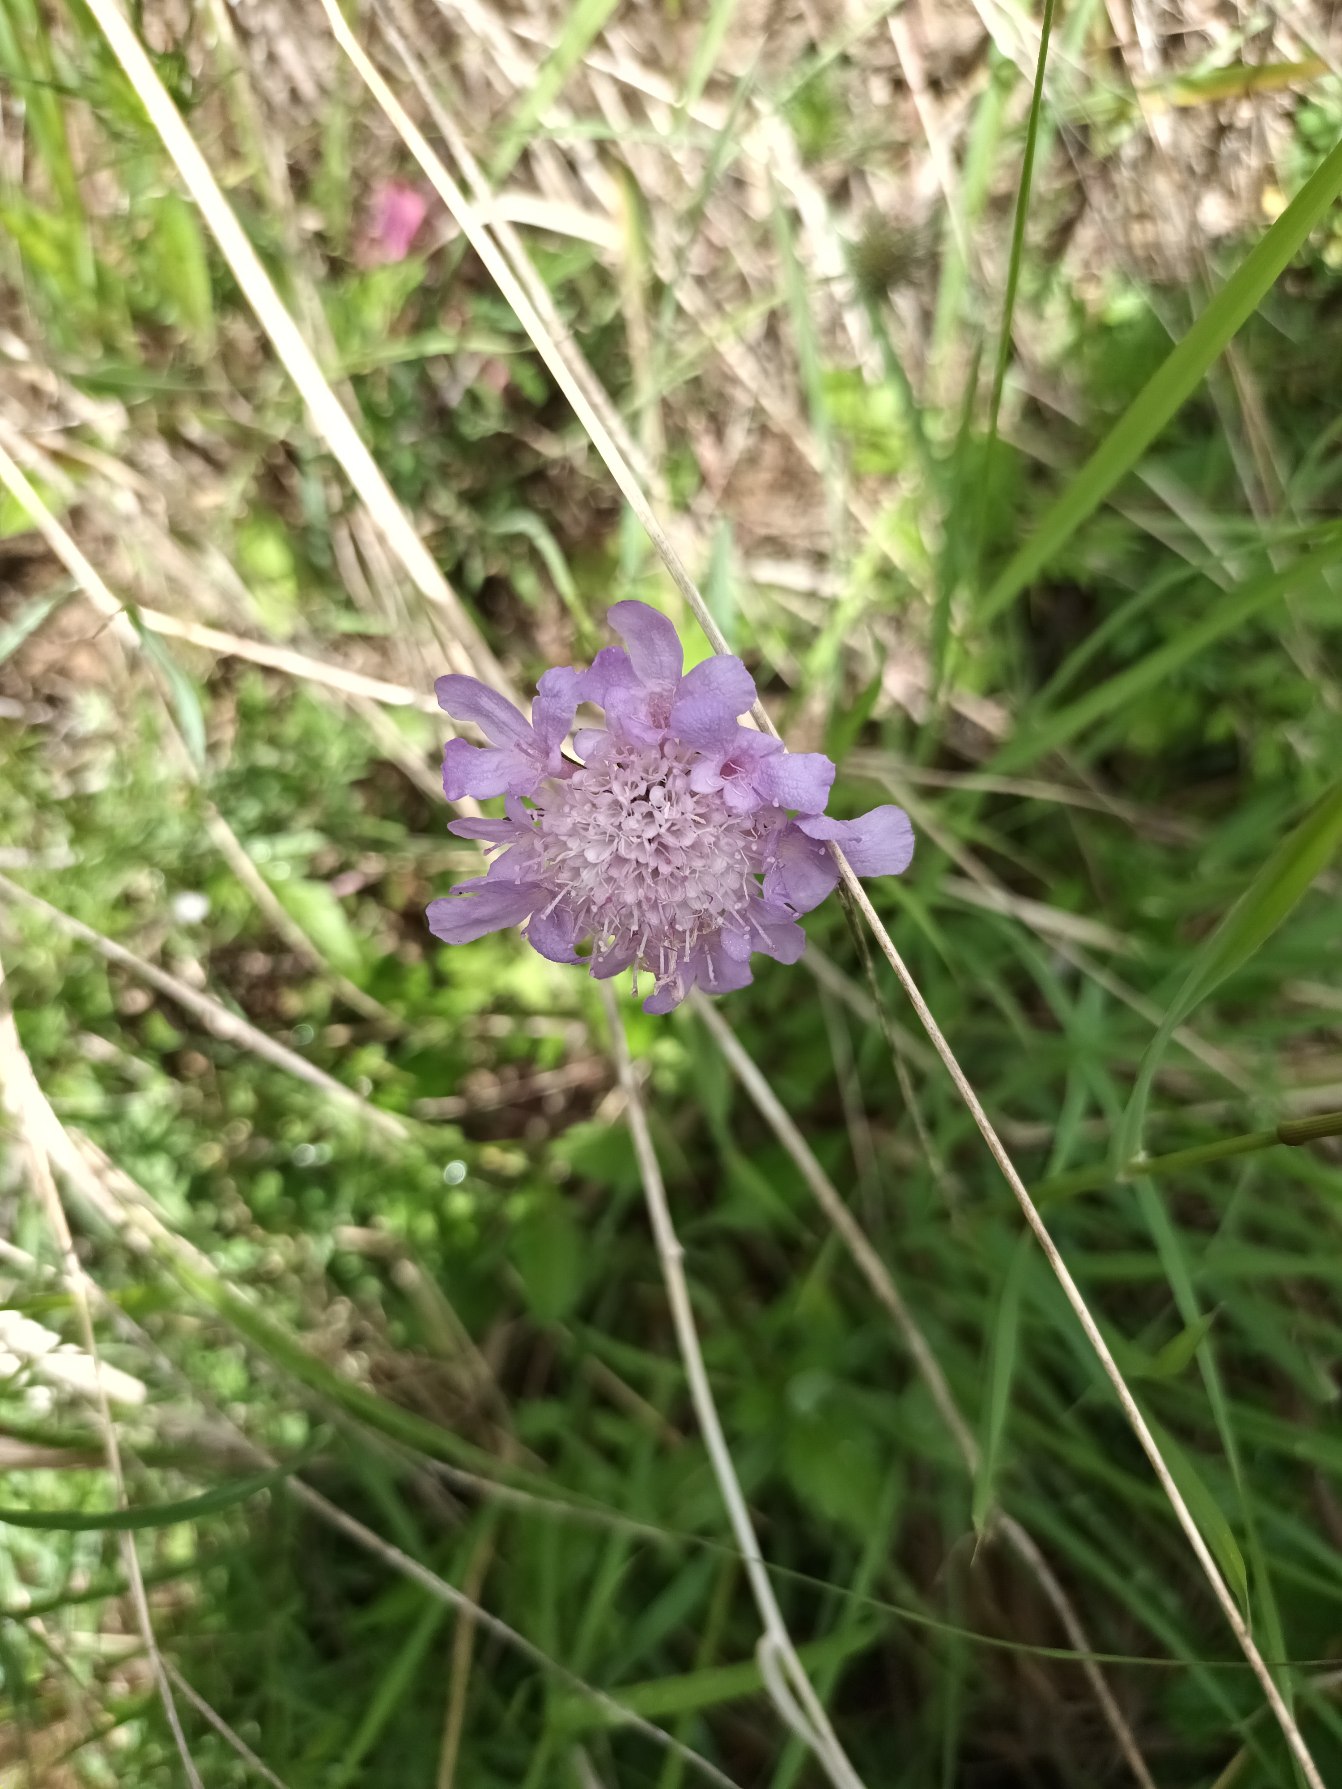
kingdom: Plantae
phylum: Tracheophyta
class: Magnoliopsida
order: Dipsacales
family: Caprifoliaceae
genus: Scabiosa
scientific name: Scabiosa columbaria
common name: Due-skabiose
